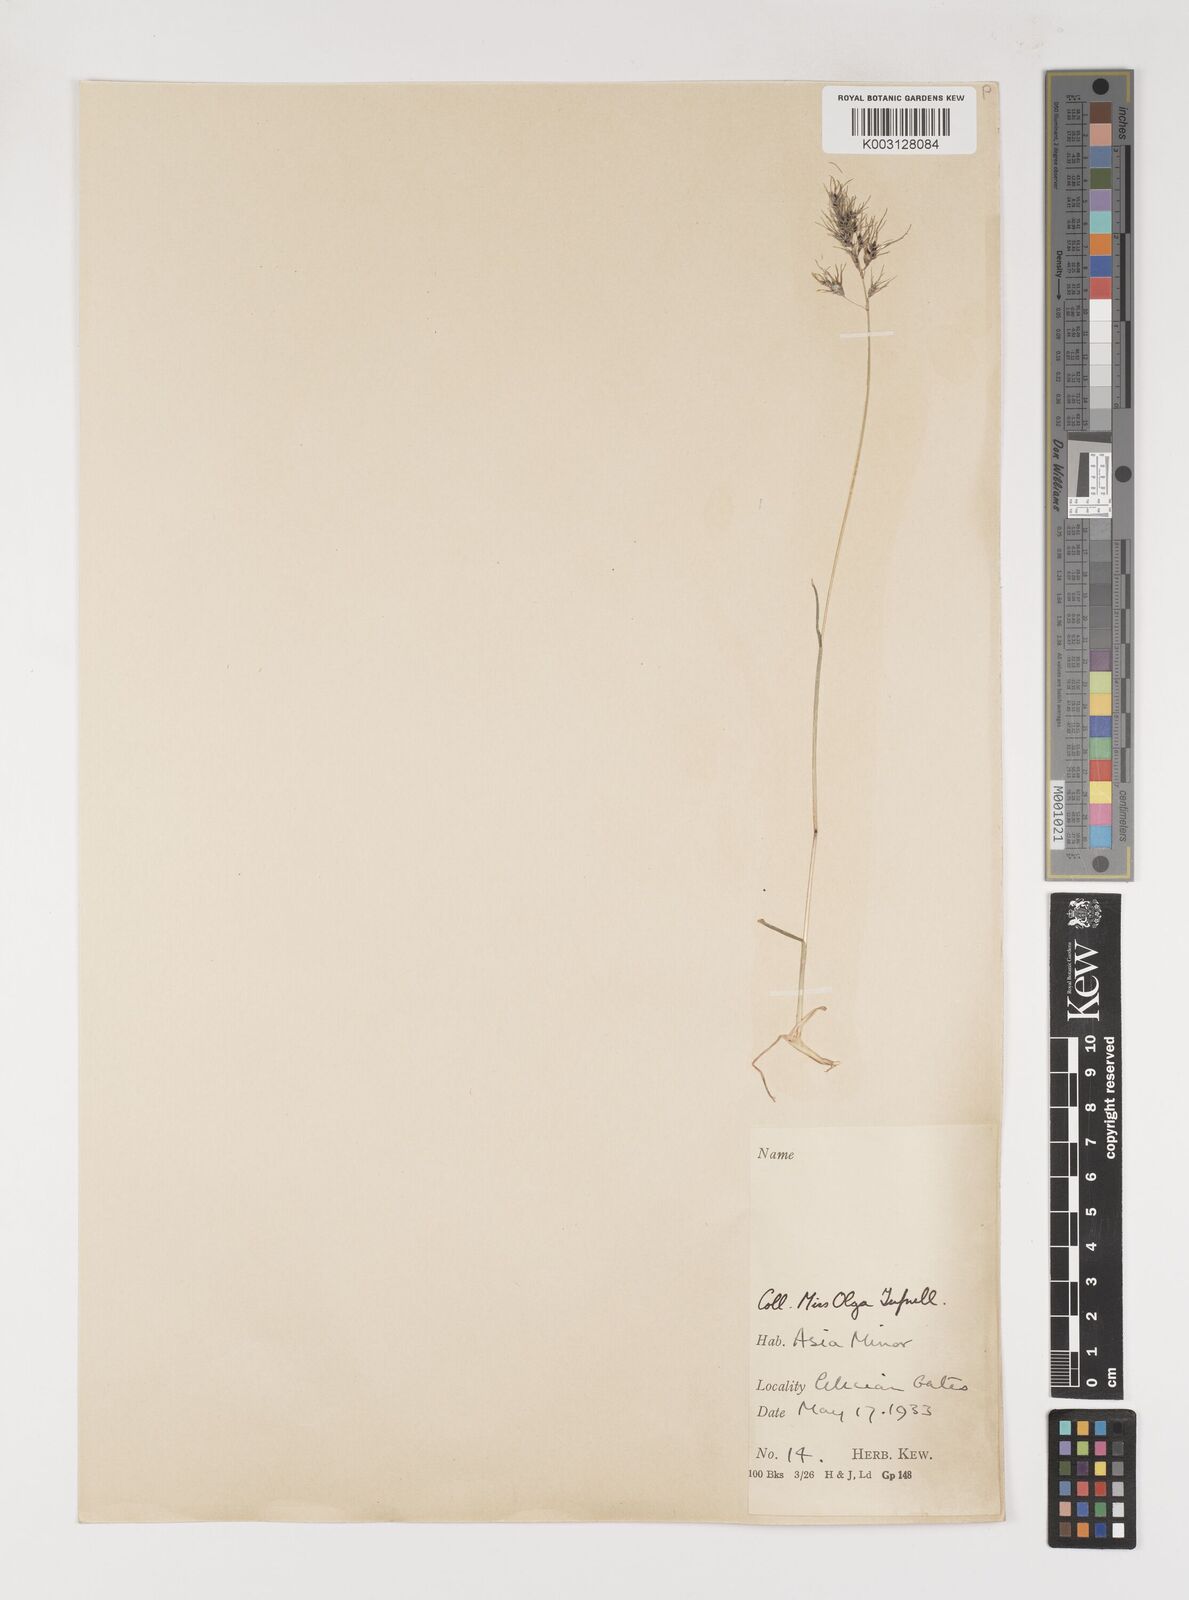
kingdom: Plantae
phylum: Tracheophyta
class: Liliopsida
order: Poales
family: Poaceae
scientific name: Poaceae
